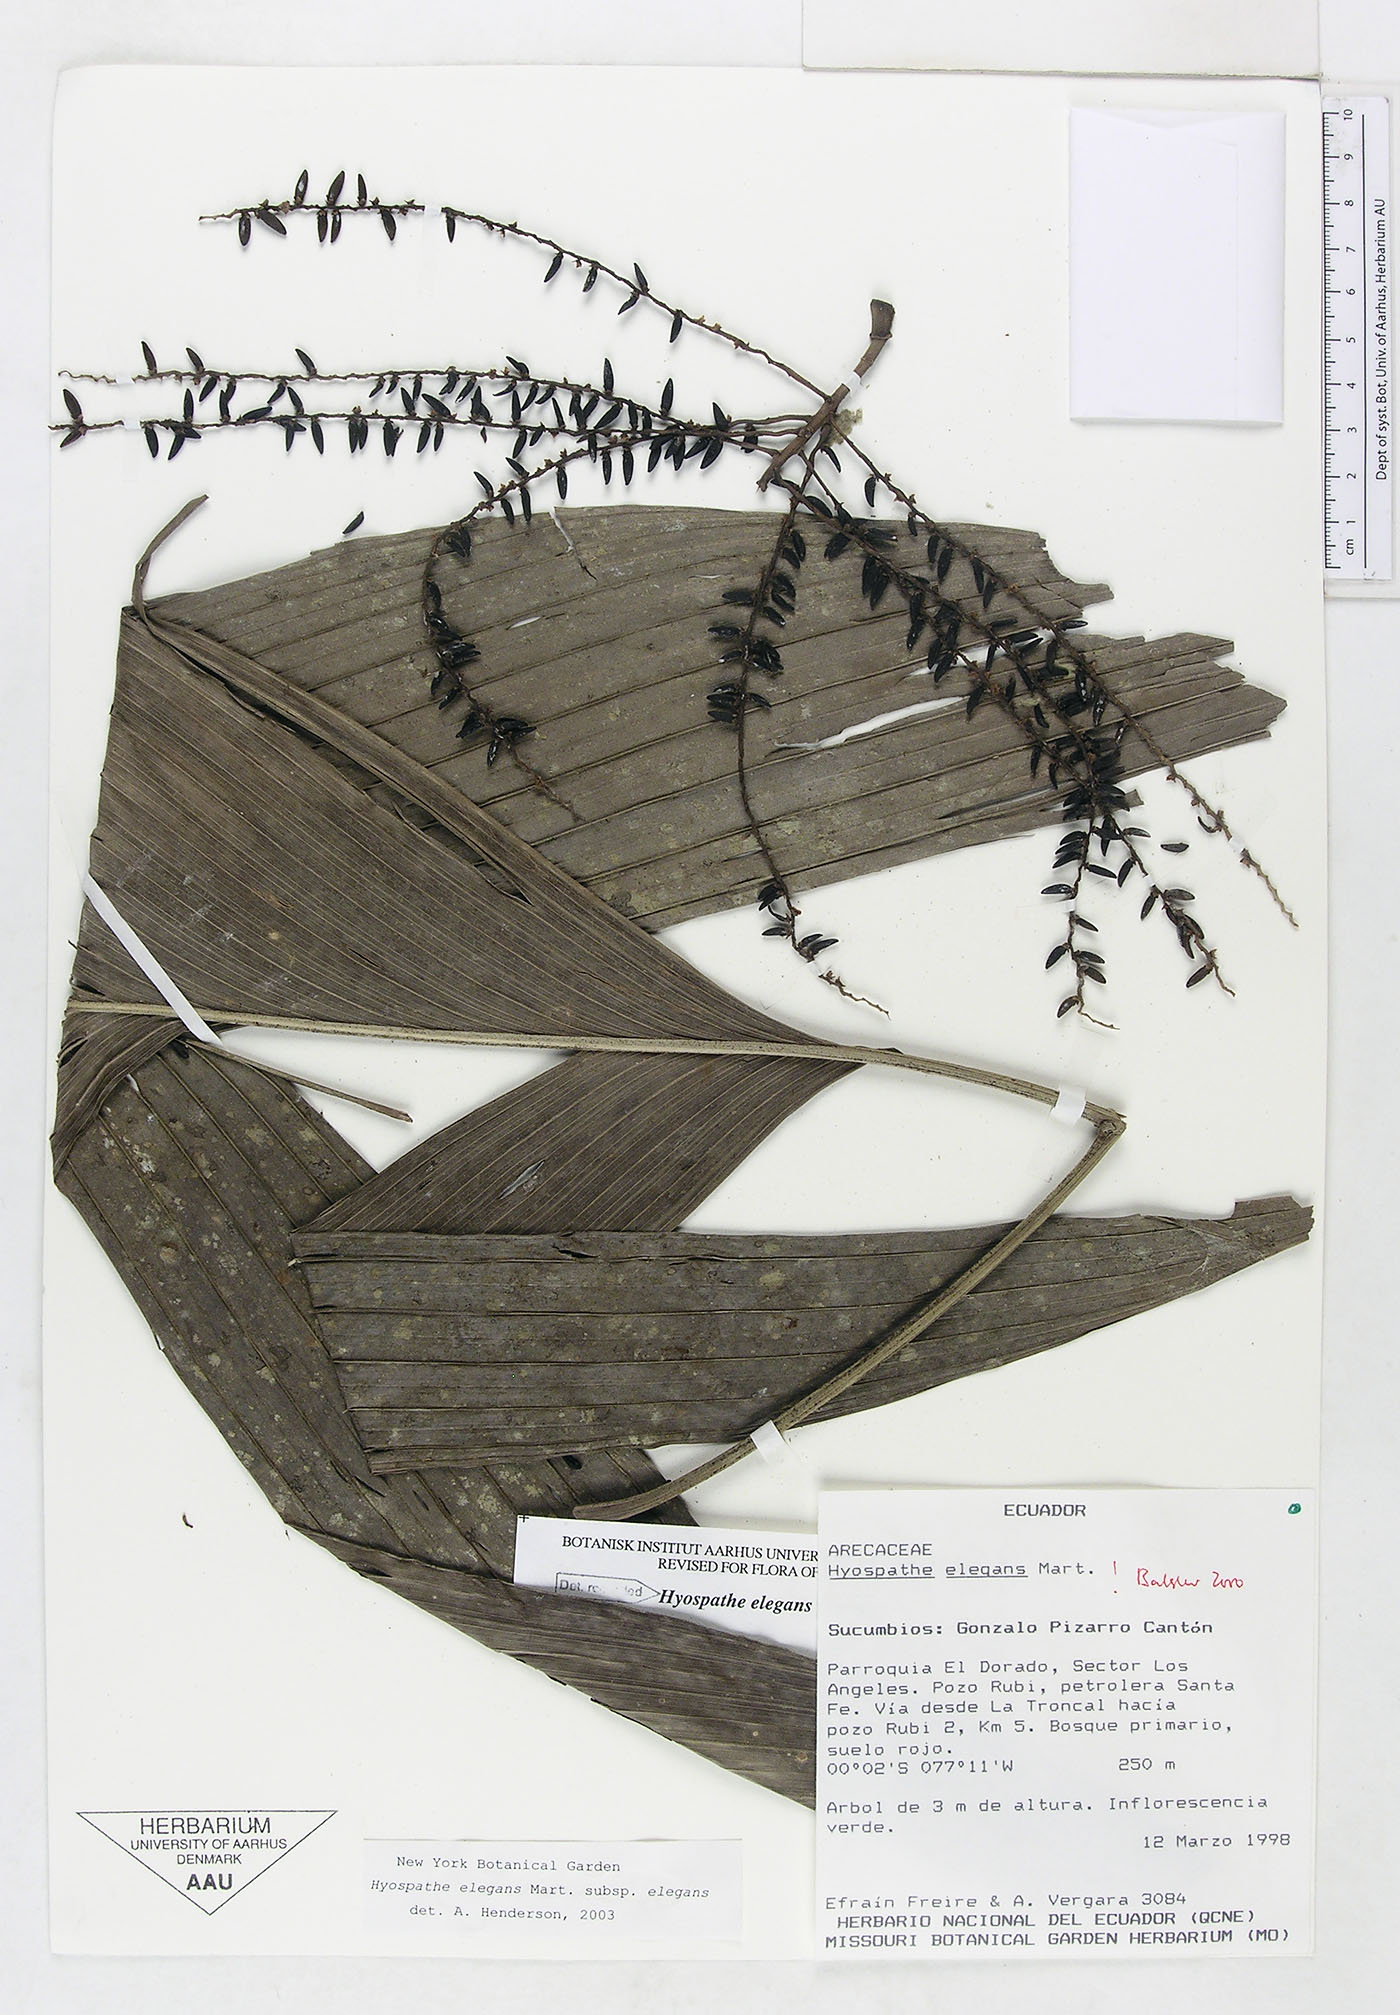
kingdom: Plantae
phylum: Tracheophyta
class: Liliopsida
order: Arecales
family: Arecaceae
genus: Hyospathe
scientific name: Hyospathe elegans
